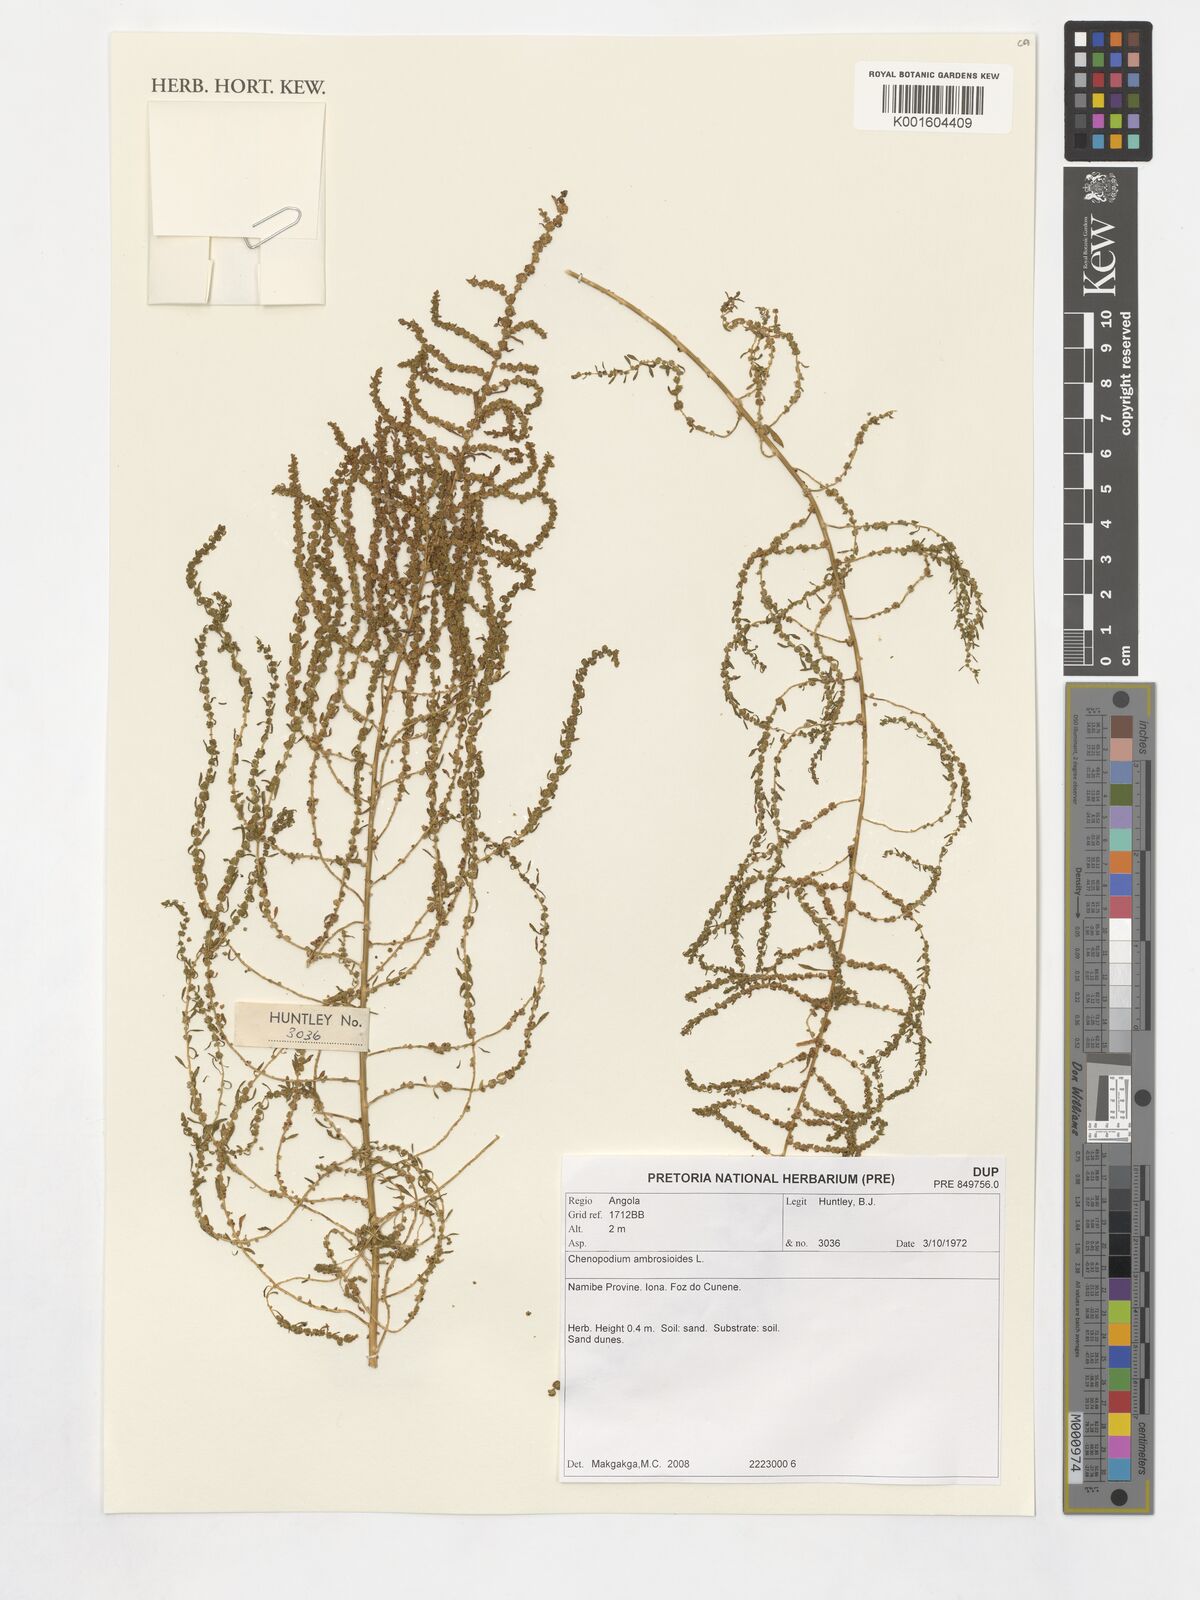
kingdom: Plantae
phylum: Tracheophyta
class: Magnoliopsida
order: Caryophyllales
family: Amaranthaceae
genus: Dysphania
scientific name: Dysphania ambrosioides
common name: Wormseed
